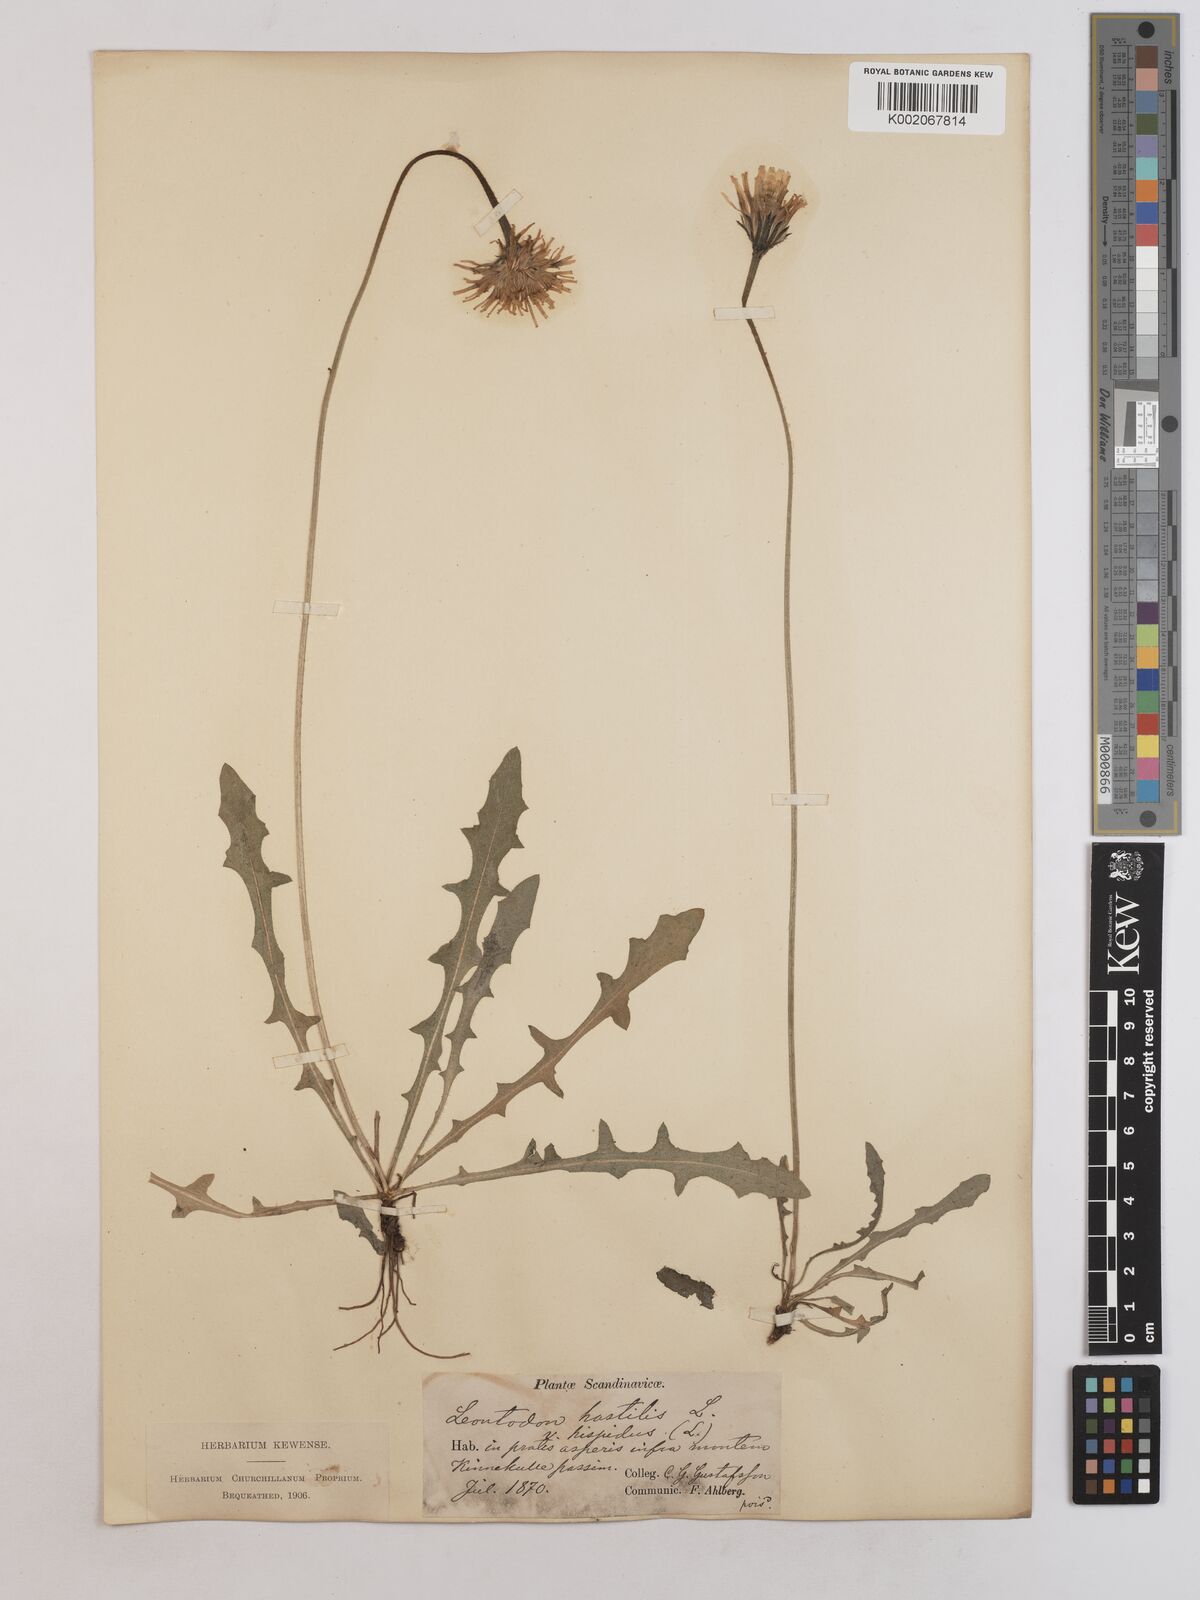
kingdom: Plantae
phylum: Tracheophyta
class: Magnoliopsida
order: Asterales
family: Asteraceae
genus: Leontodon
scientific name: Leontodon hispidus
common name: Rough hawkbit
